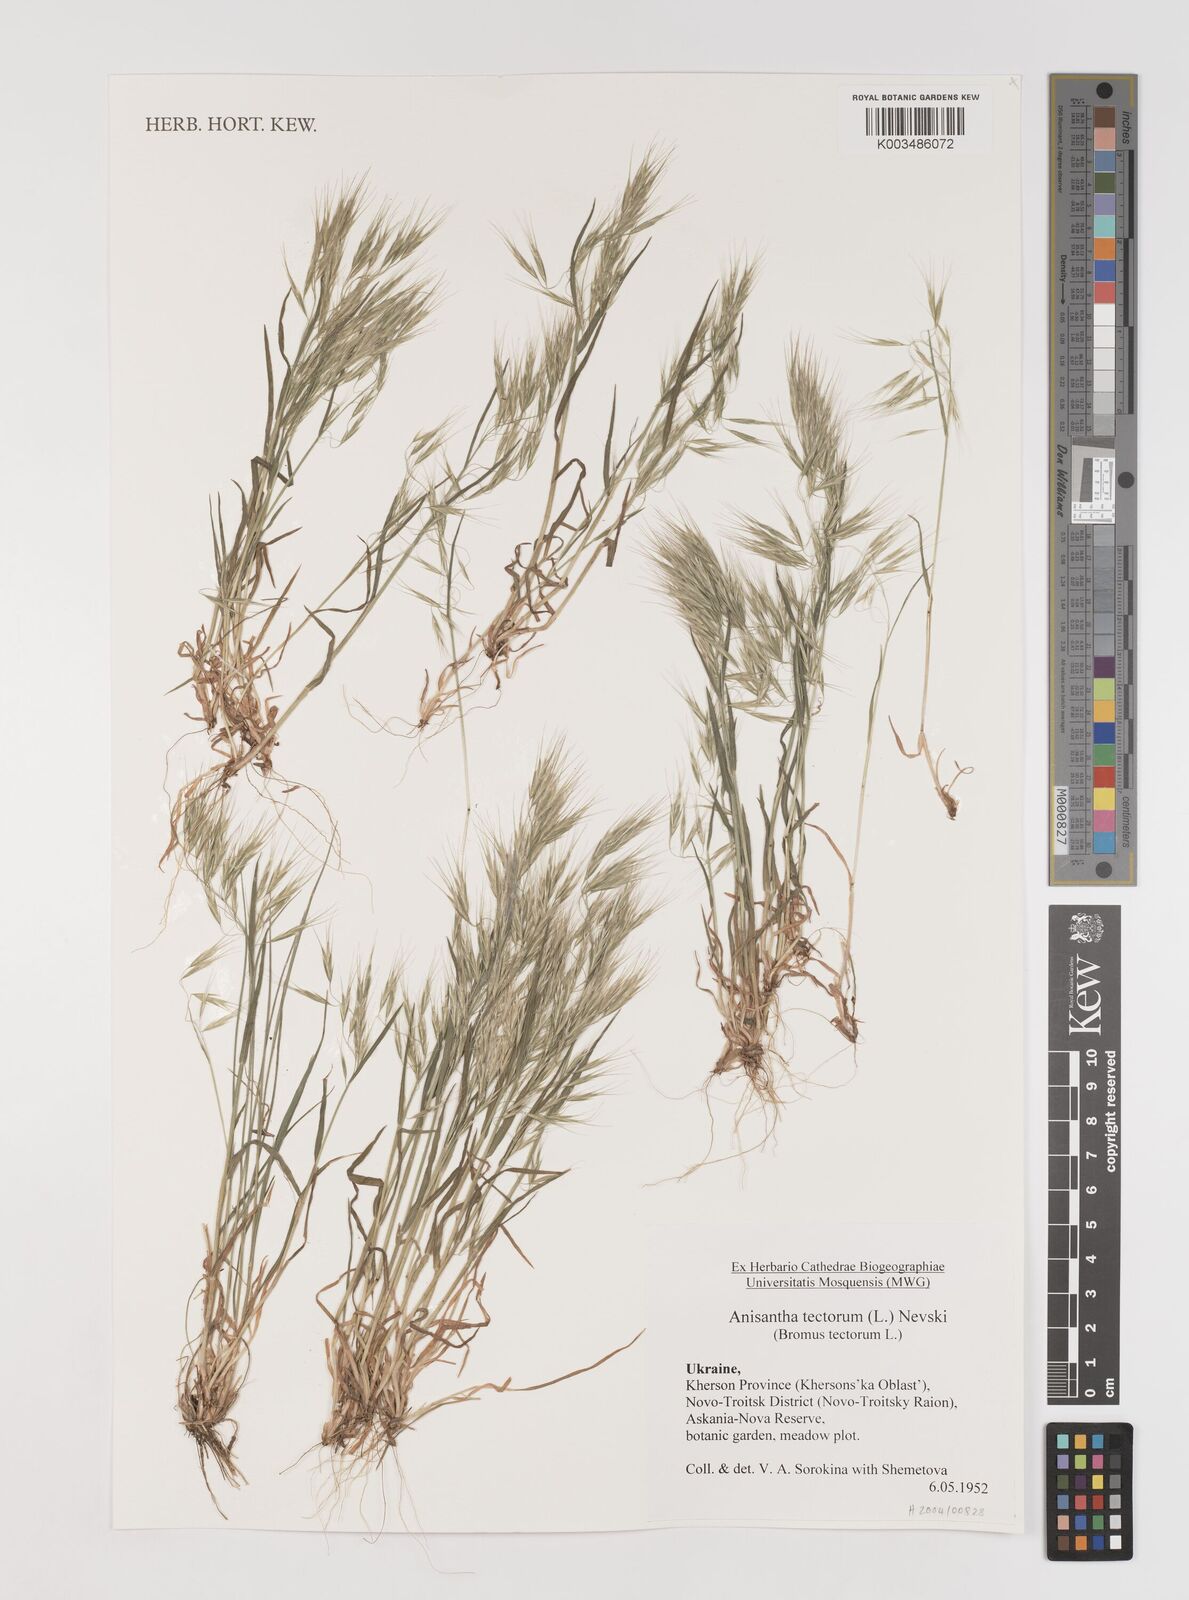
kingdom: Plantae
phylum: Tracheophyta
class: Liliopsida
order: Poales
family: Poaceae
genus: Bromus
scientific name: Bromus tectorum
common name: Cheatgrass
